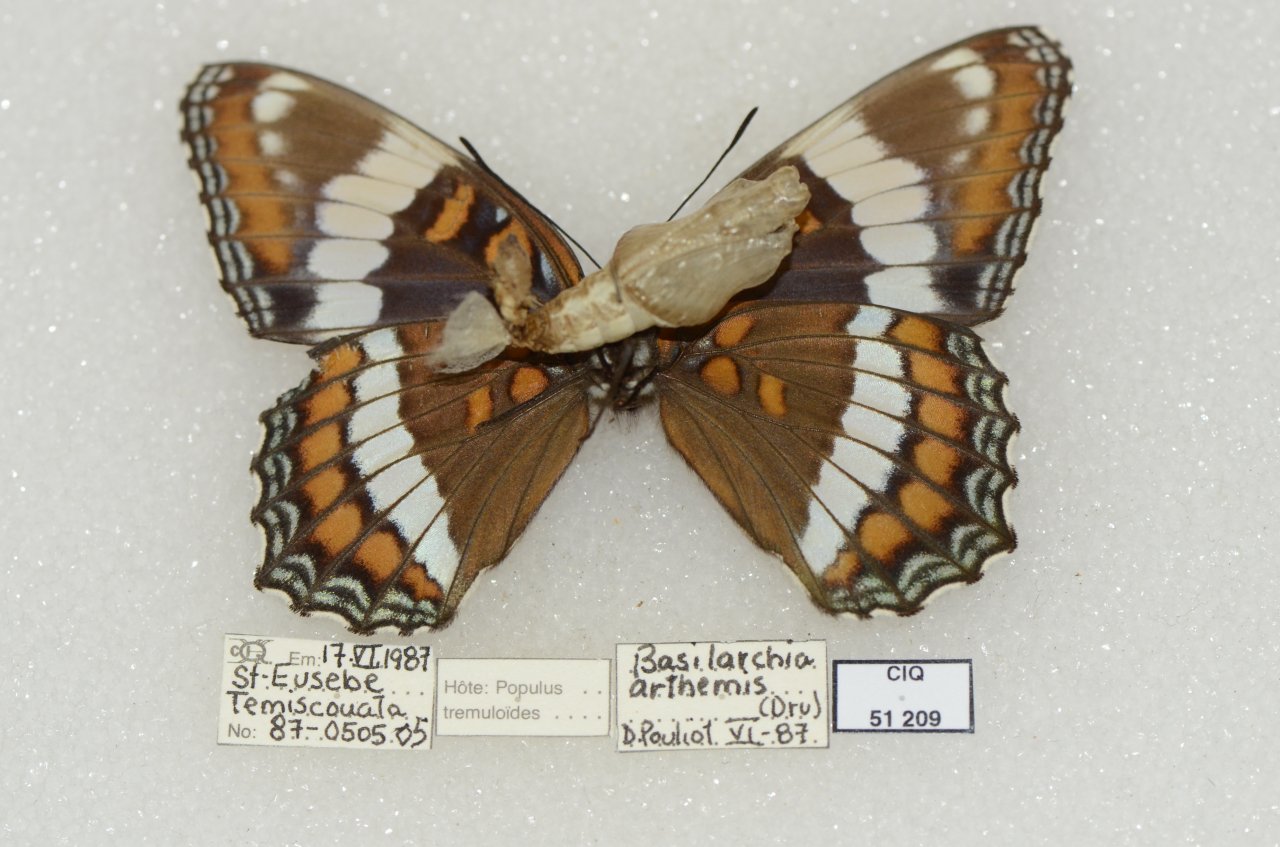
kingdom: Animalia
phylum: Arthropoda
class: Insecta
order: Lepidoptera
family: Nymphalidae
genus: Limenitis
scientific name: Limenitis arthemis
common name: Red-spotted Admiral
